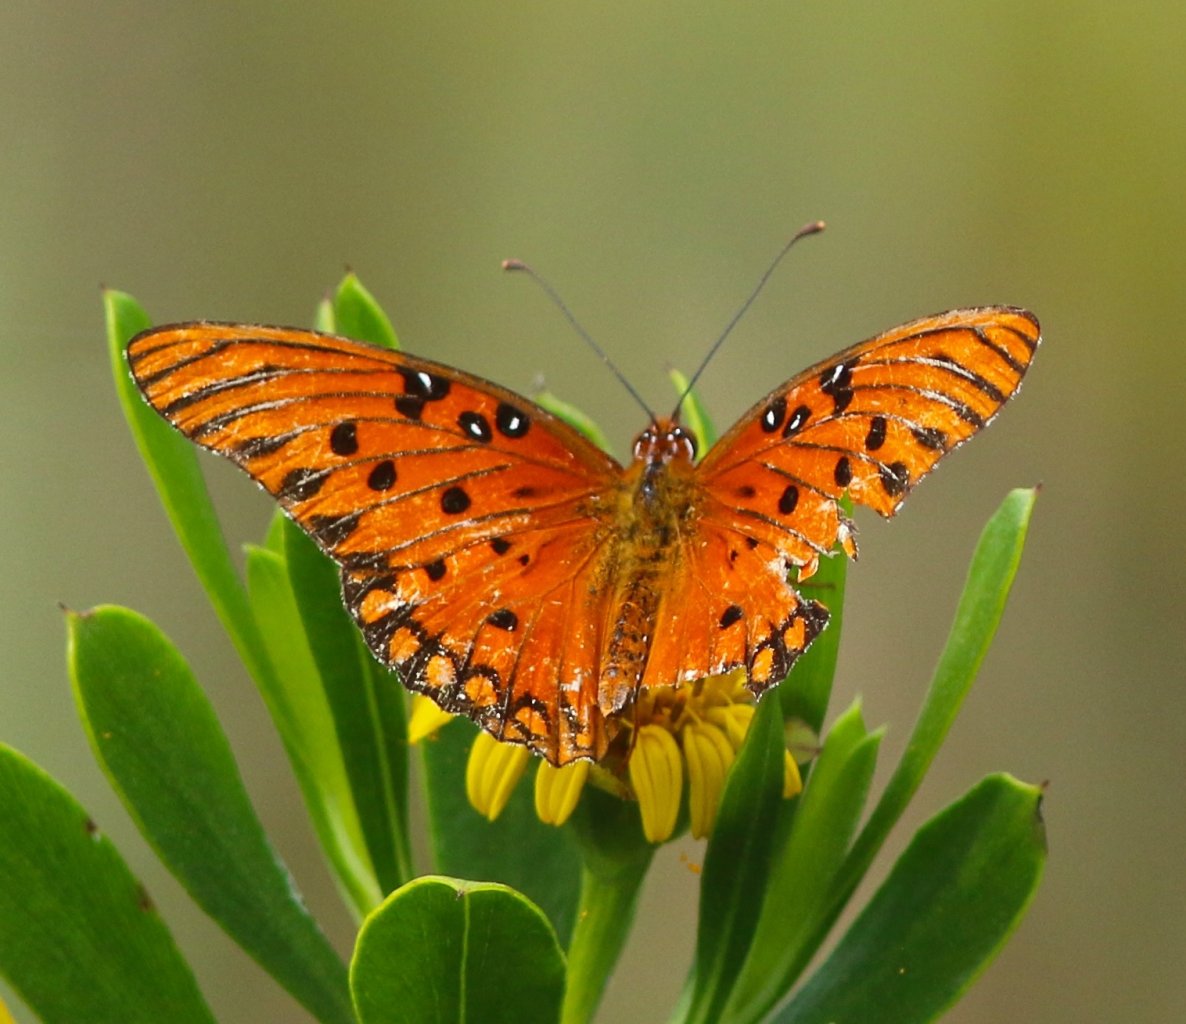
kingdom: Animalia
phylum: Arthropoda
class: Insecta
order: Lepidoptera
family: Nymphalidae
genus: Dione
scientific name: Dione vanillae
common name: Gulf Fritillary
